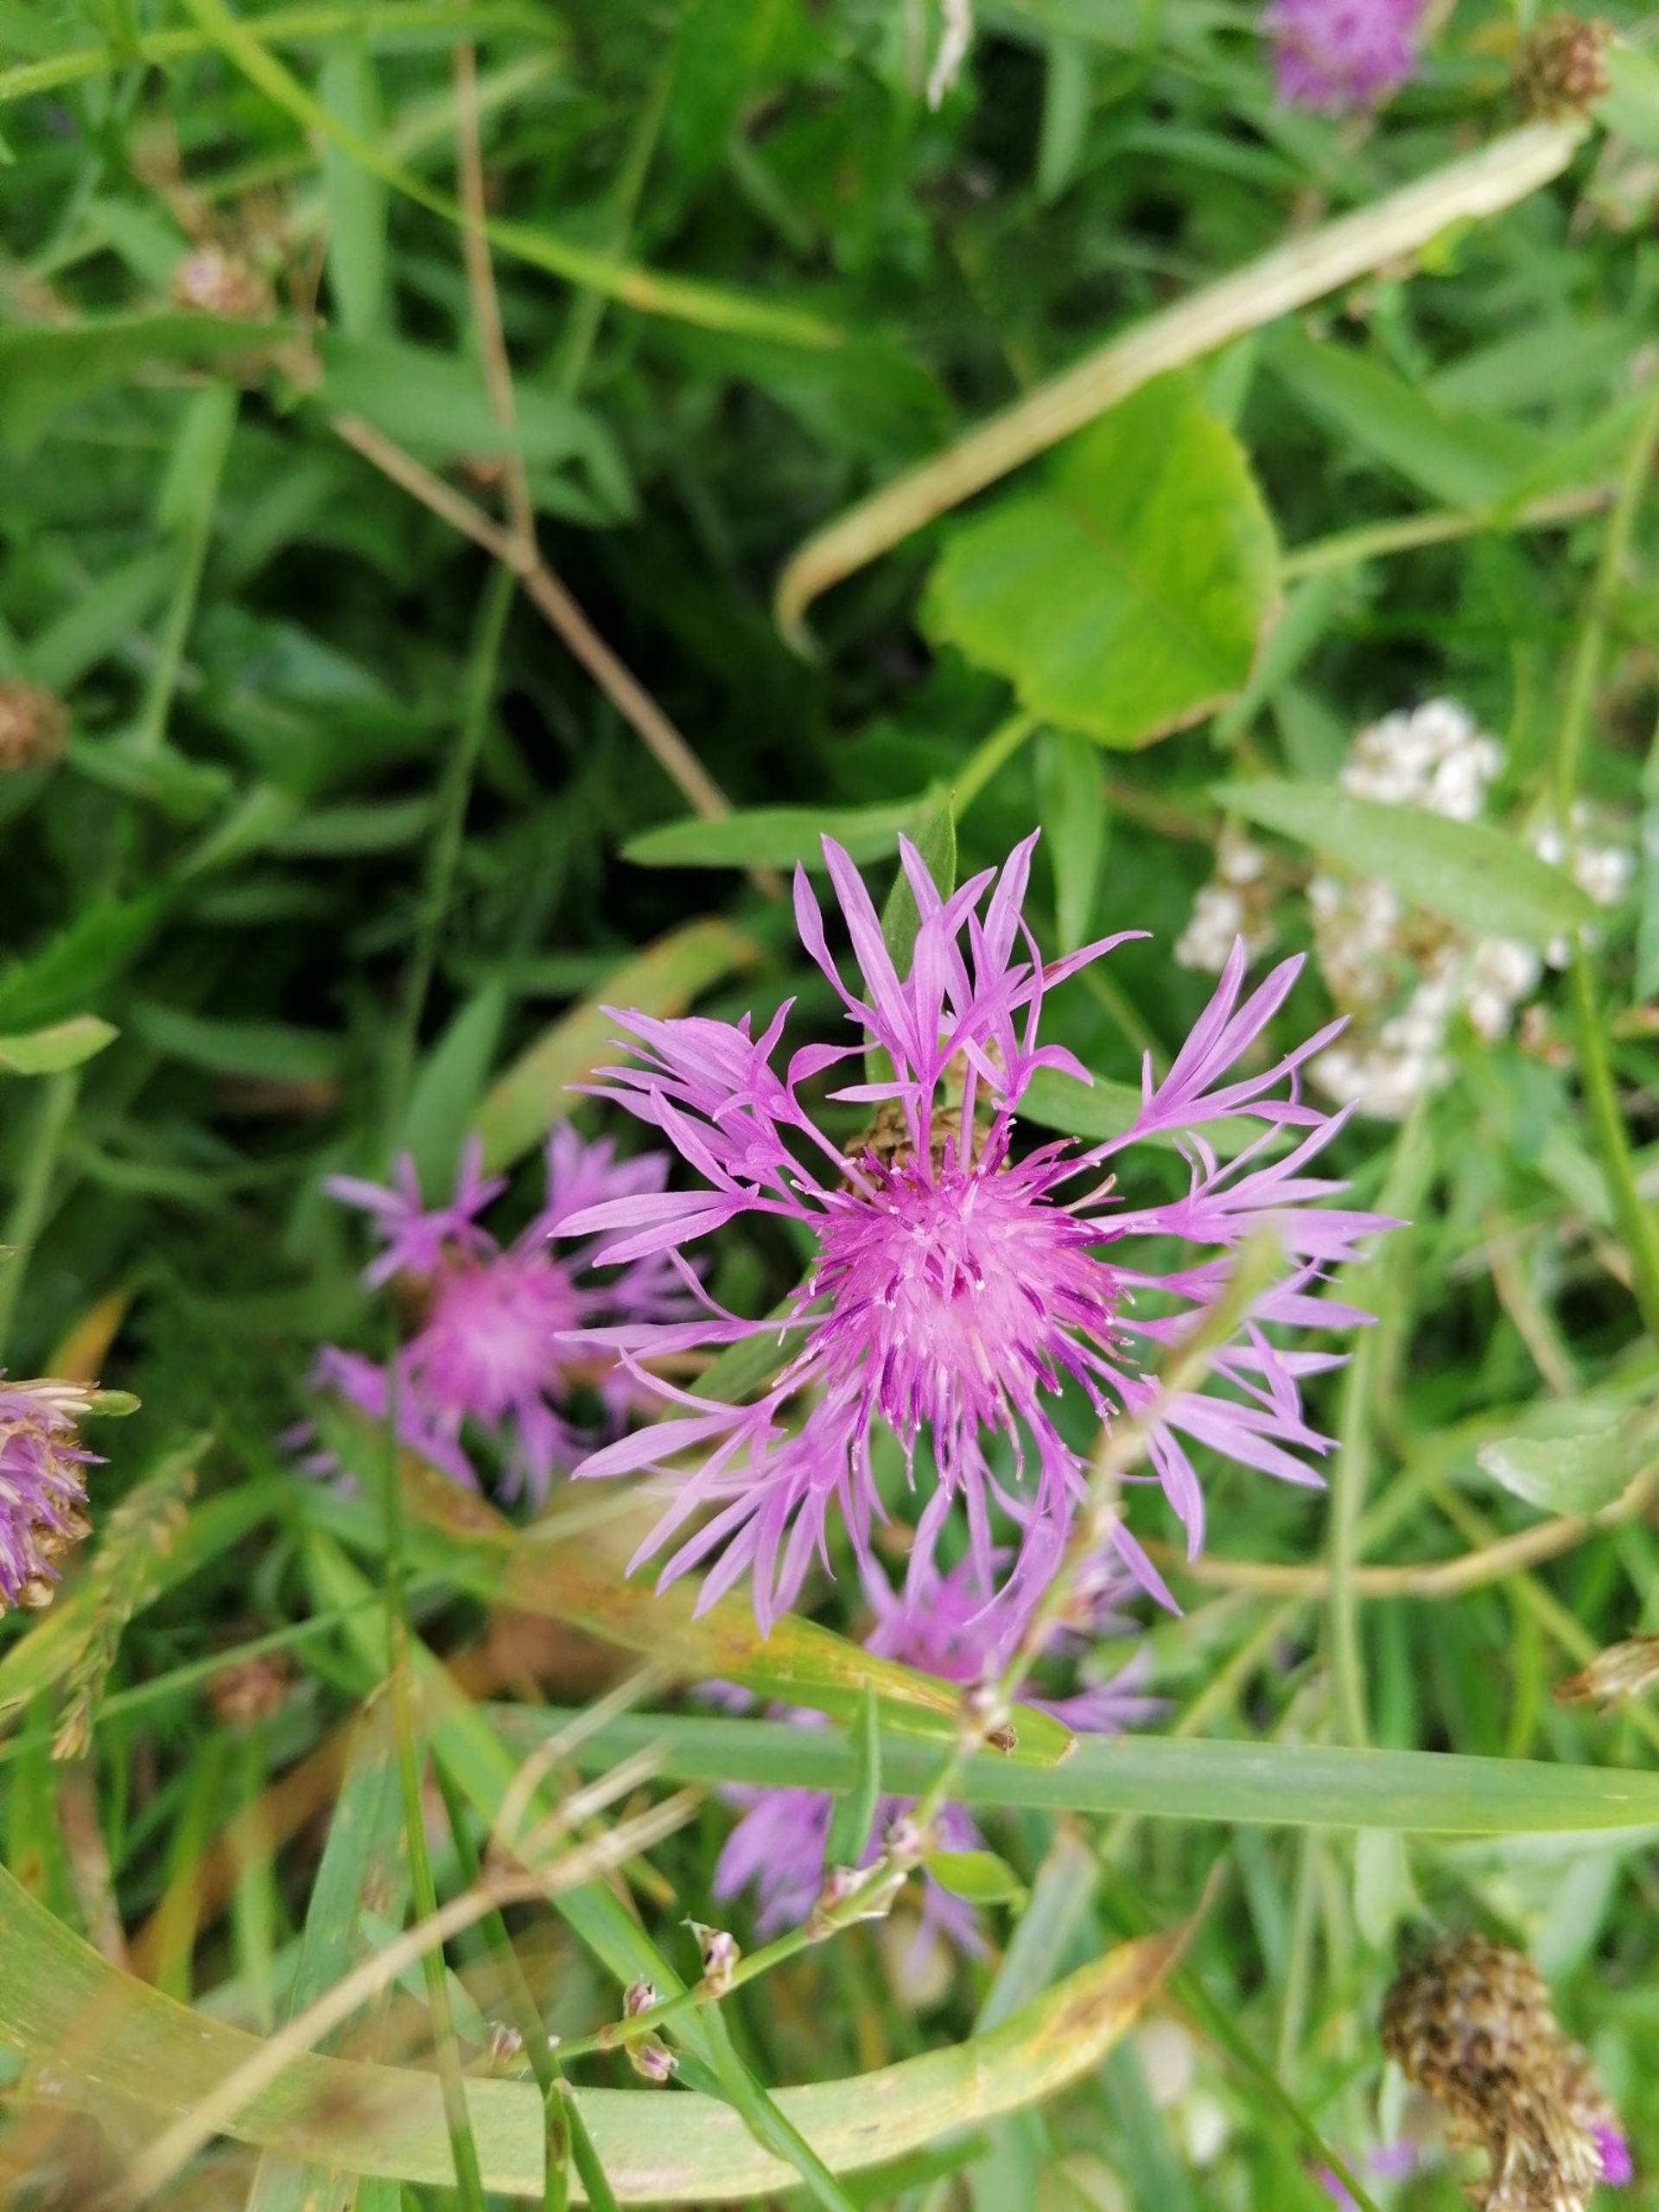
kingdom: Plantae
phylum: Tracheophyta
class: Magnoliopsida
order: Asterales
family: Asteraceae
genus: Centaurea
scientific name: Centaurea jacea
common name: Almindelig knopurt
